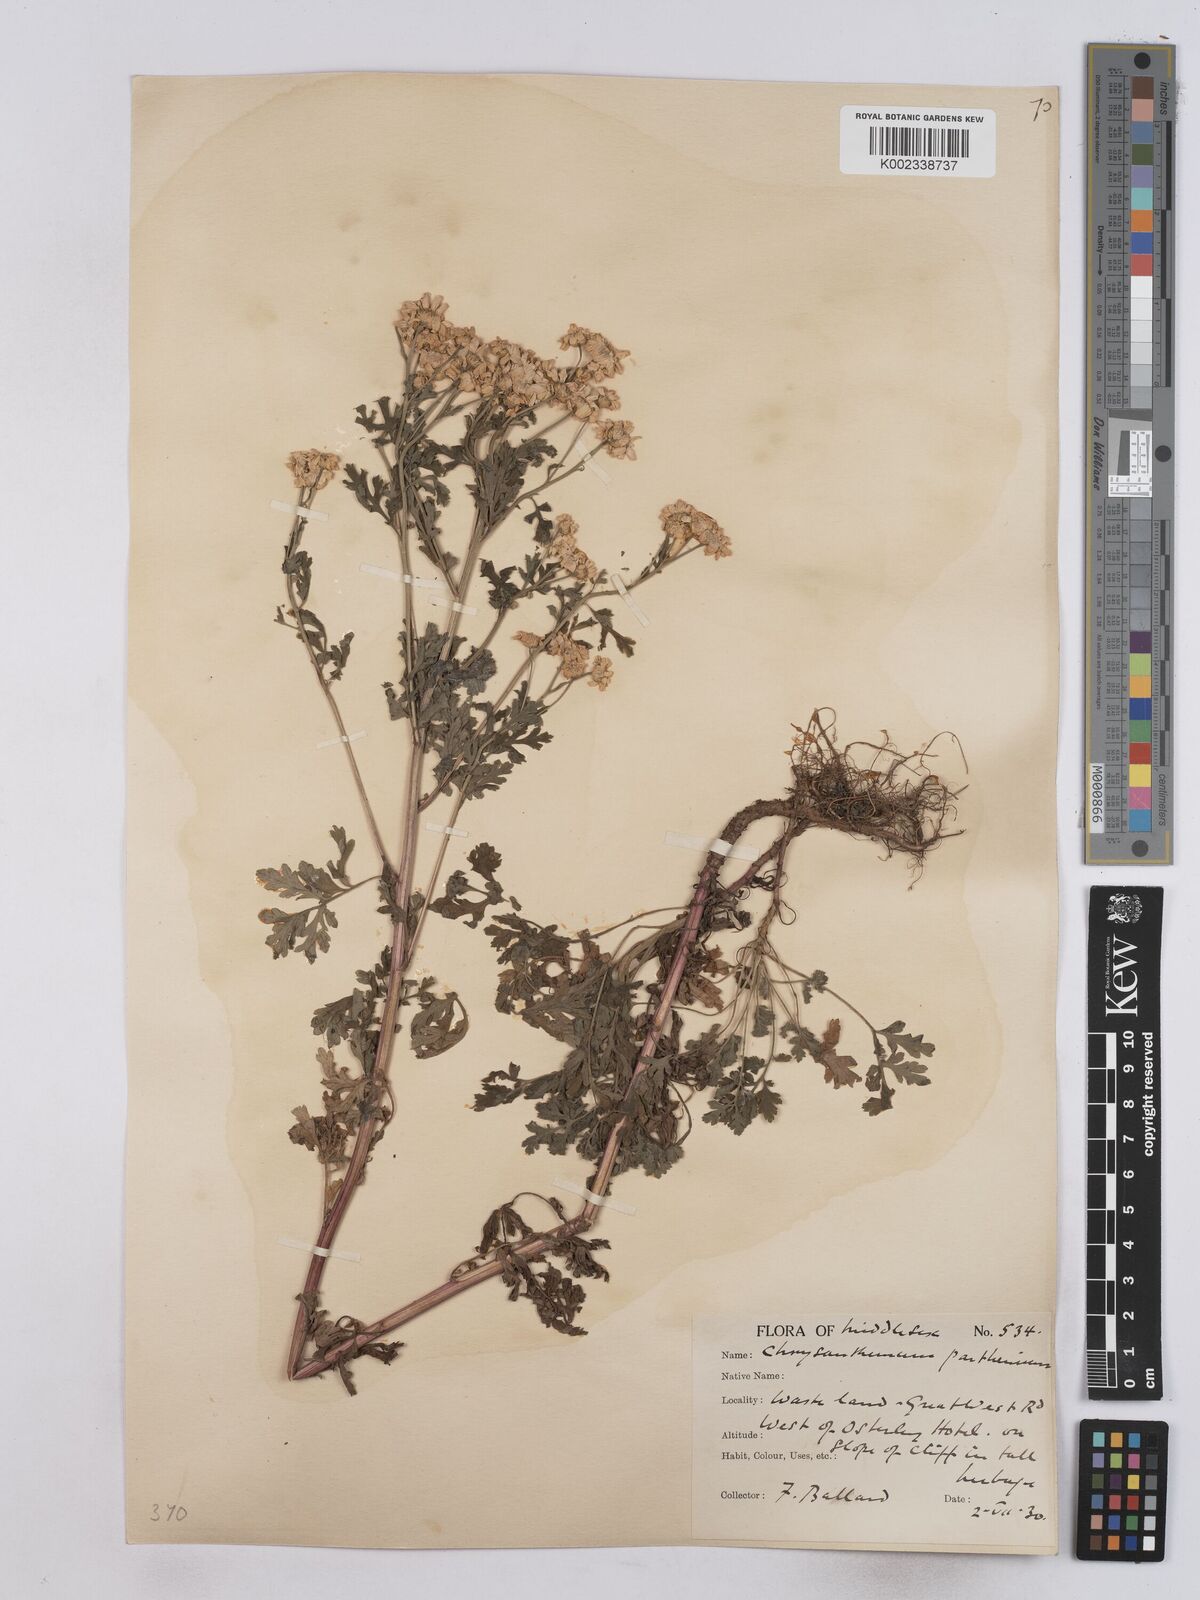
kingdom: Plantae
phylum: Tracheophyta
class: Magnoliopsida
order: Asterales
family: Asteraceae
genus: Tanacetum
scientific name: Tanacetum parthenium
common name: Feverfew
